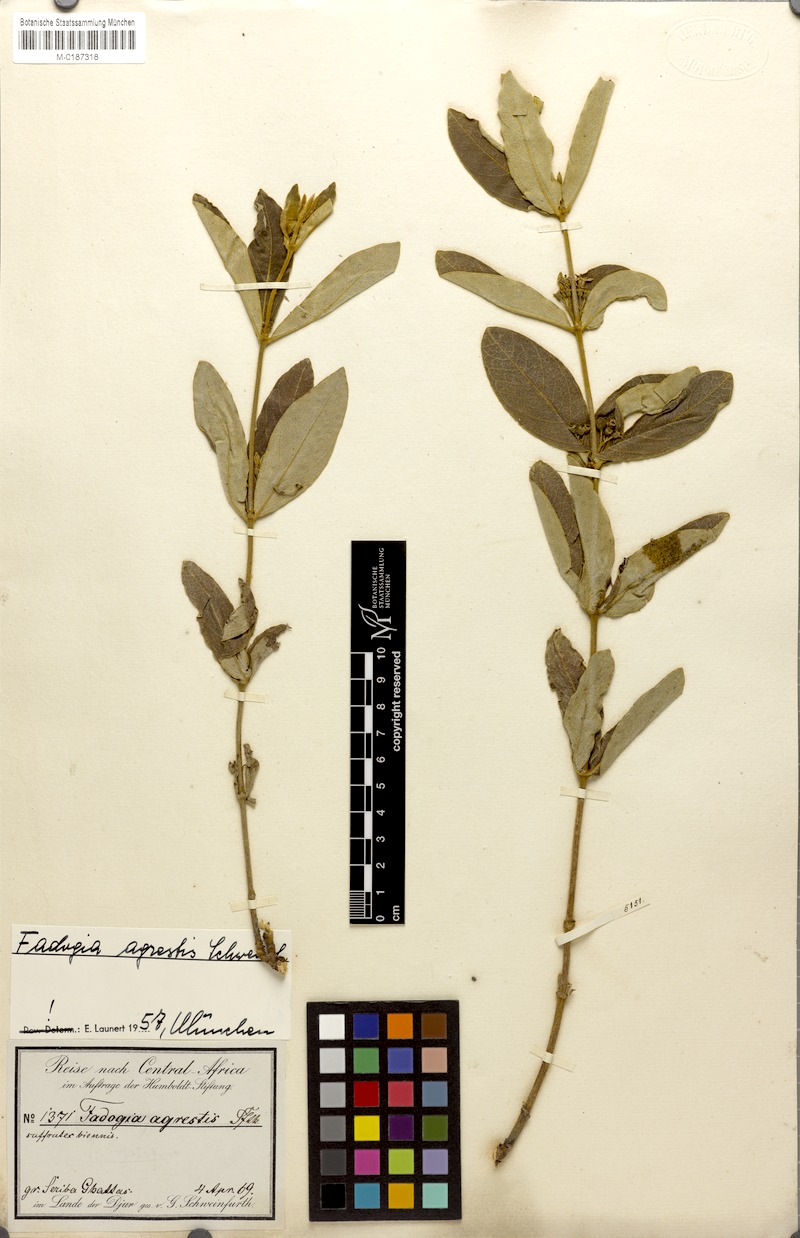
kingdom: Plantae
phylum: Tracheophyta
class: Magnoliopsida
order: Gentianales
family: Rubiaceae
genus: Vangueria
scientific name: Vangueria agrestis
